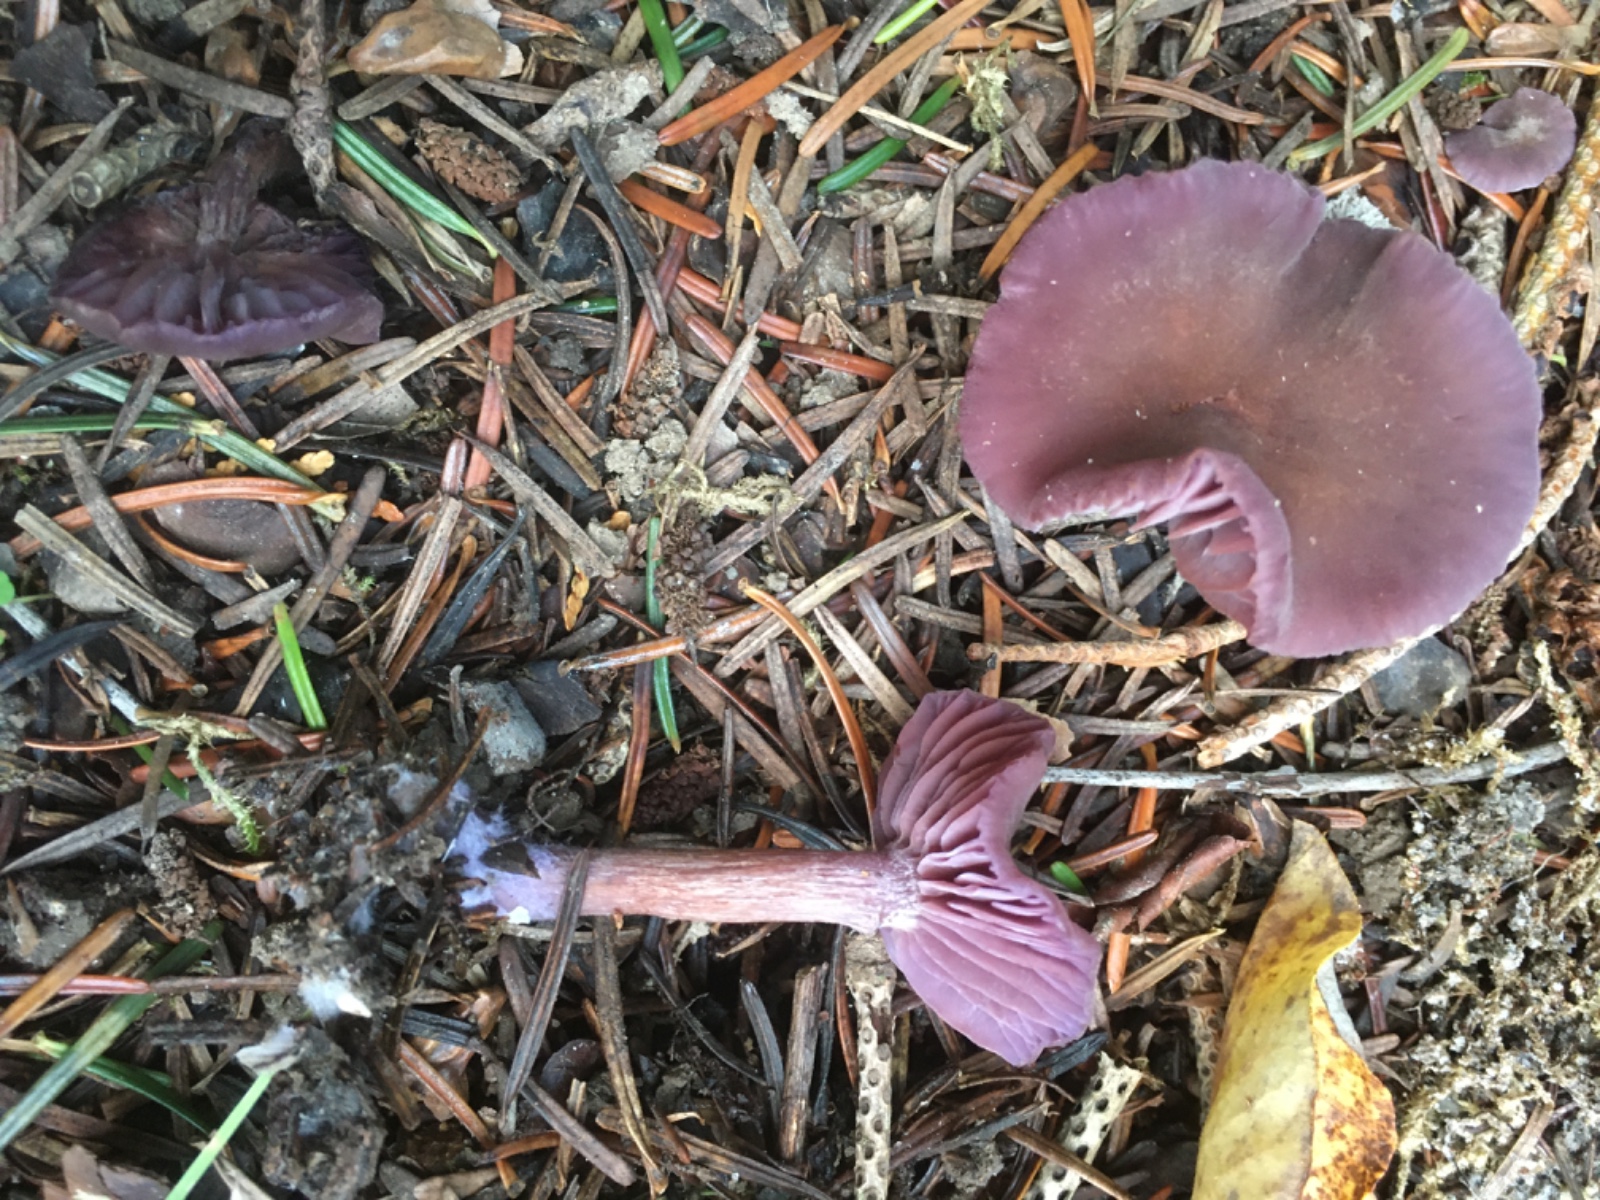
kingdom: Fungi
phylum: Basidiomycota
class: Agaricomycetes
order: Agaricales
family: Hydnangiaceae
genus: Laccaria
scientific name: Laccaria amethystina
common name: violet ametysthat
